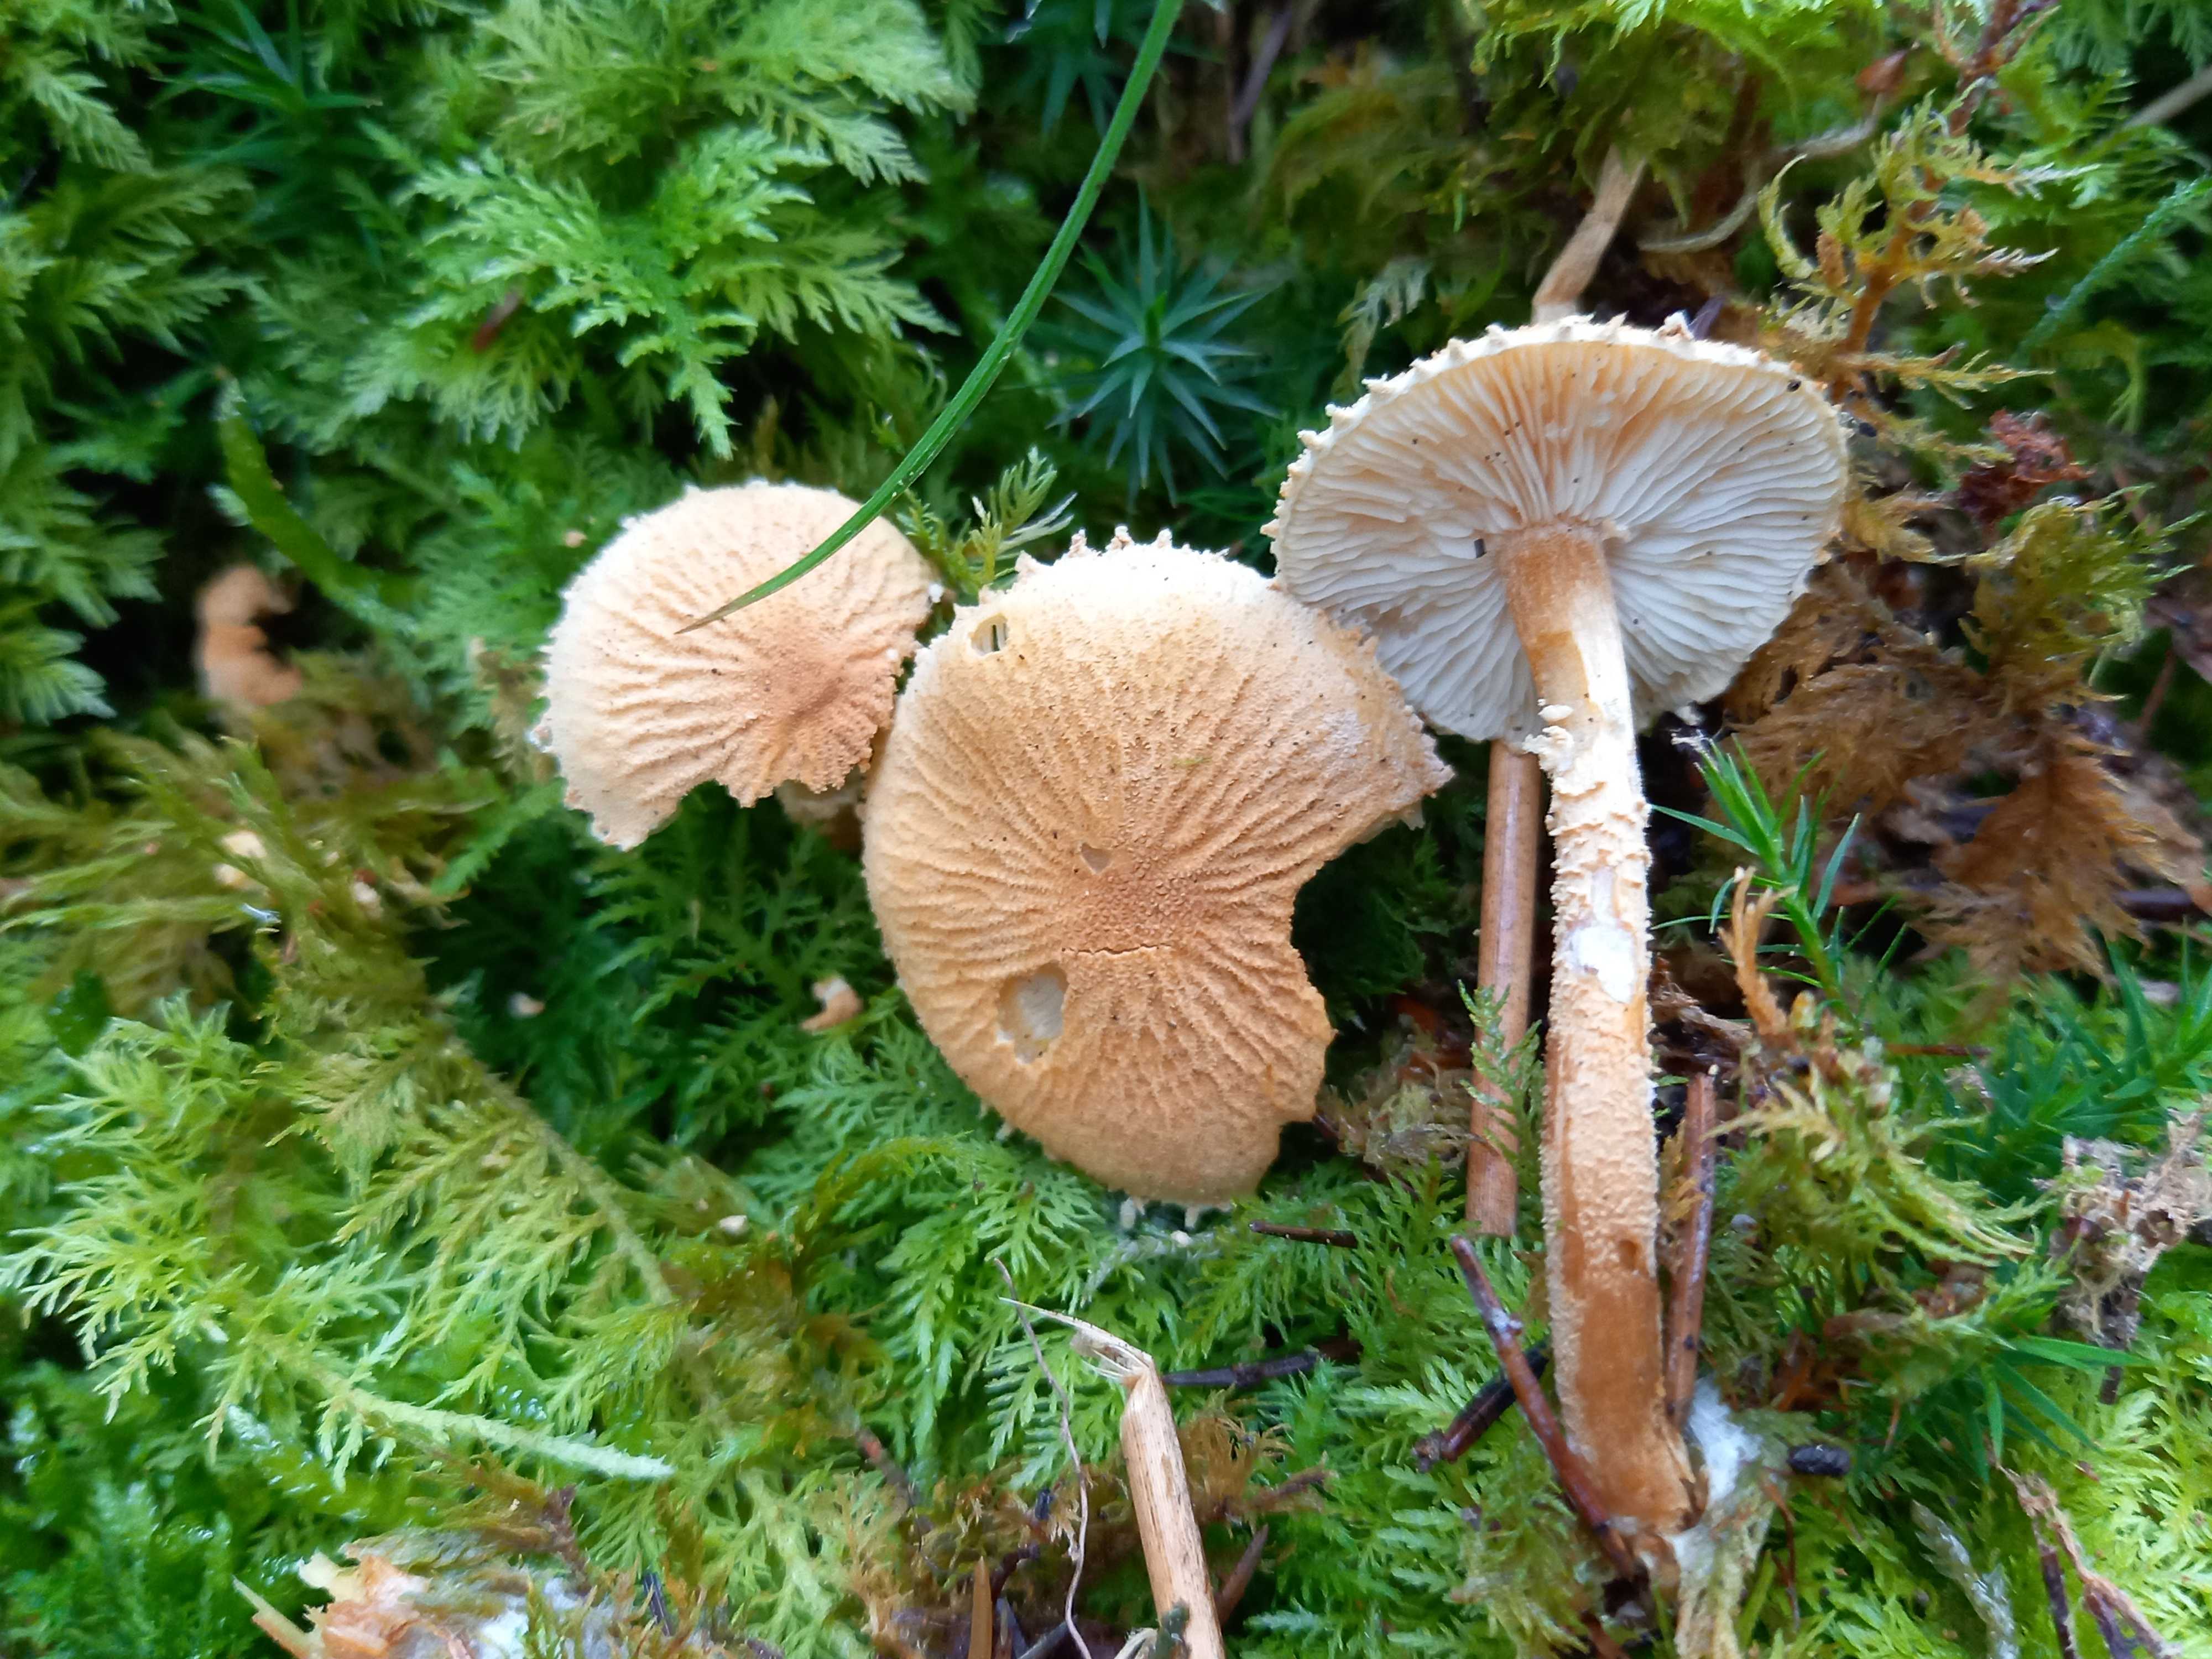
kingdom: Fungi
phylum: Basidiomycota
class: Agaricomycetes
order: Agaricales
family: Tricholomataceae
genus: Cystoderma
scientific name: Cystoderma amianthinum
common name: okkergul grynhat
